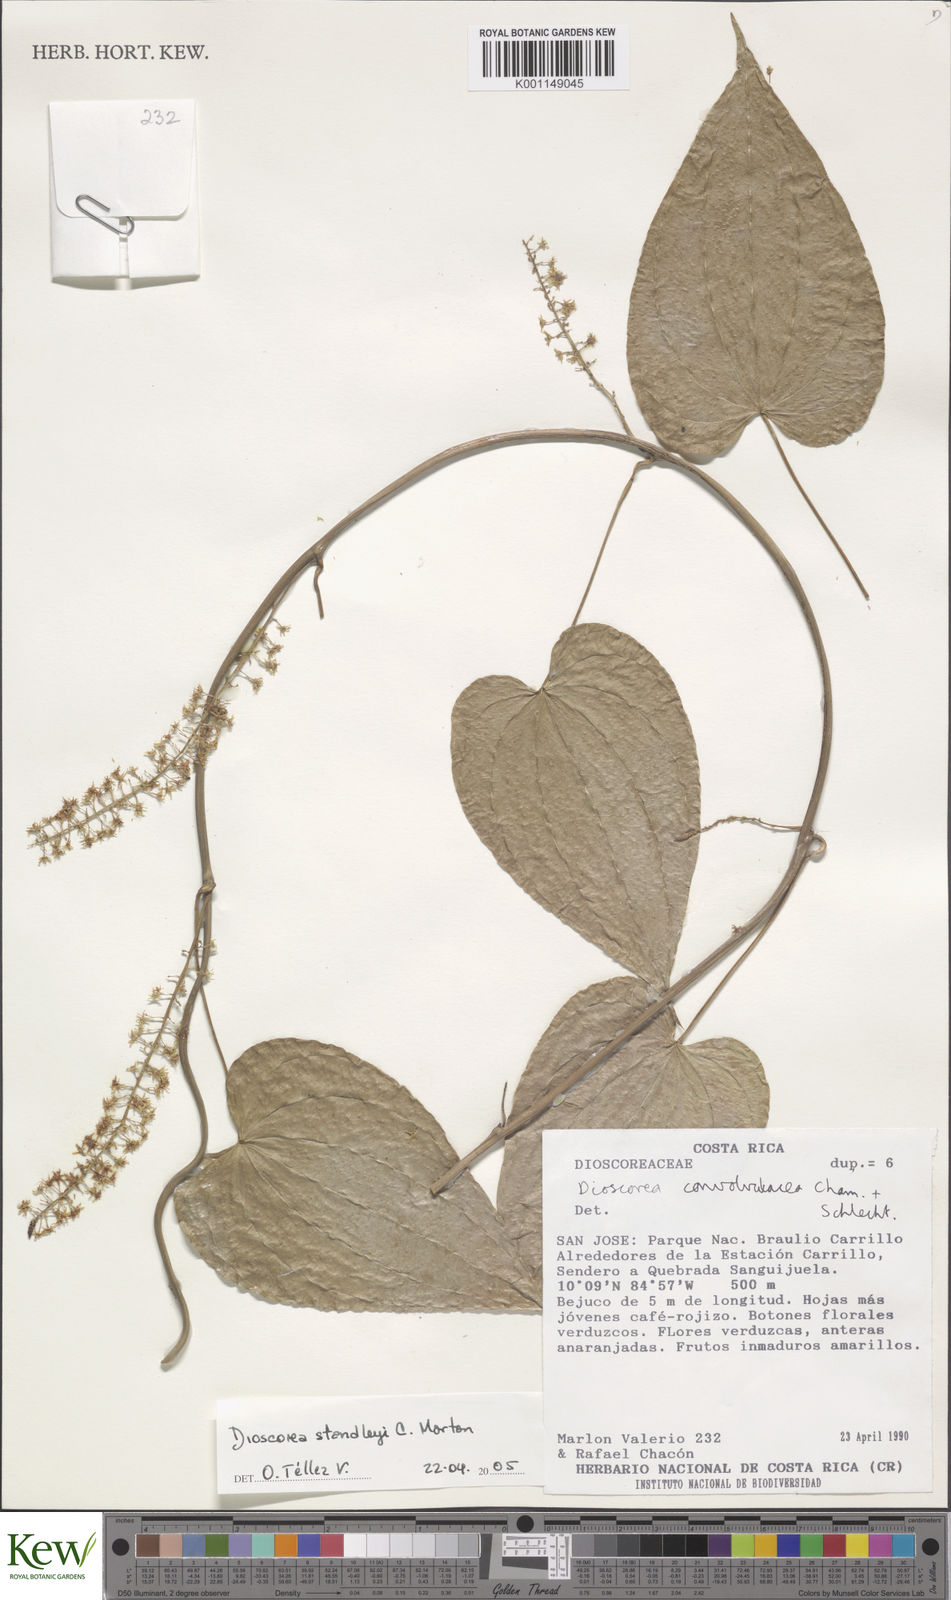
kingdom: Plantae
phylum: Tracheophyta
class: Liliopsida
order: Dioscoreales
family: Dioscoreaceae
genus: Dioscorea
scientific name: Dioscorea standleyi
